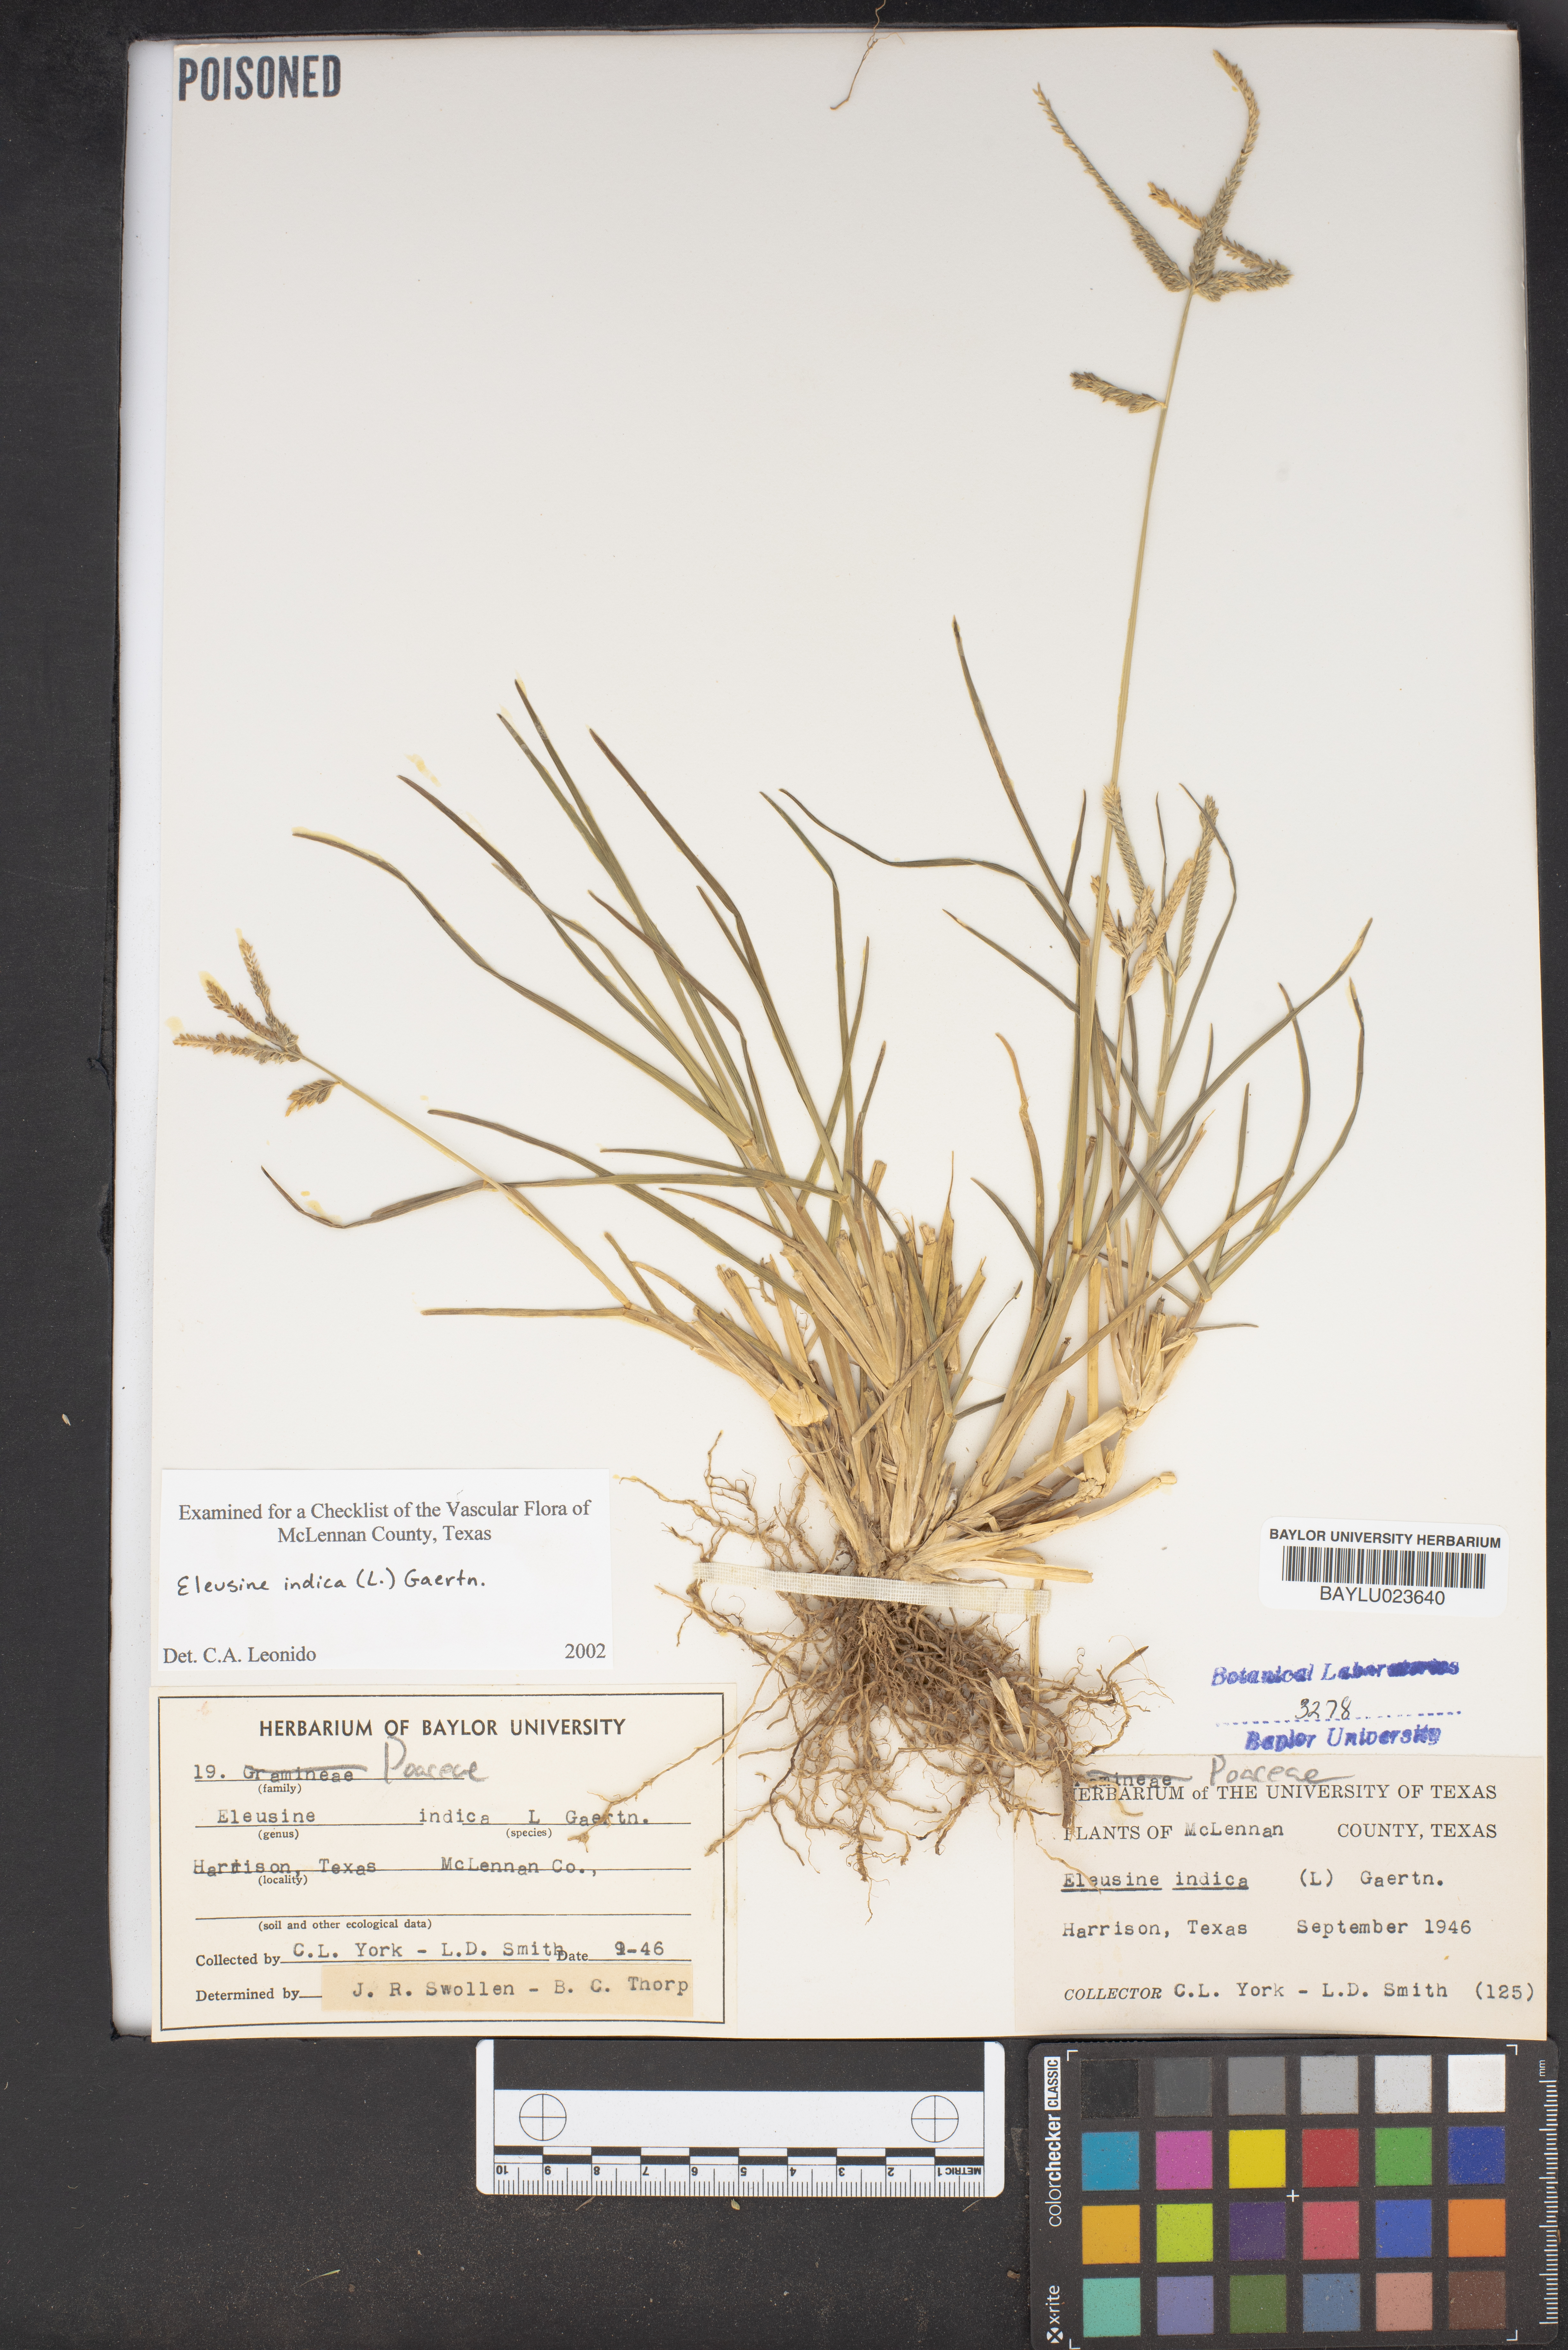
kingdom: Plantae
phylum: Tracheophyta
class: Liliopsida
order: Poales
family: Poaceae
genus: Eleusine
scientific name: Eleusine indica
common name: Yard-grass
